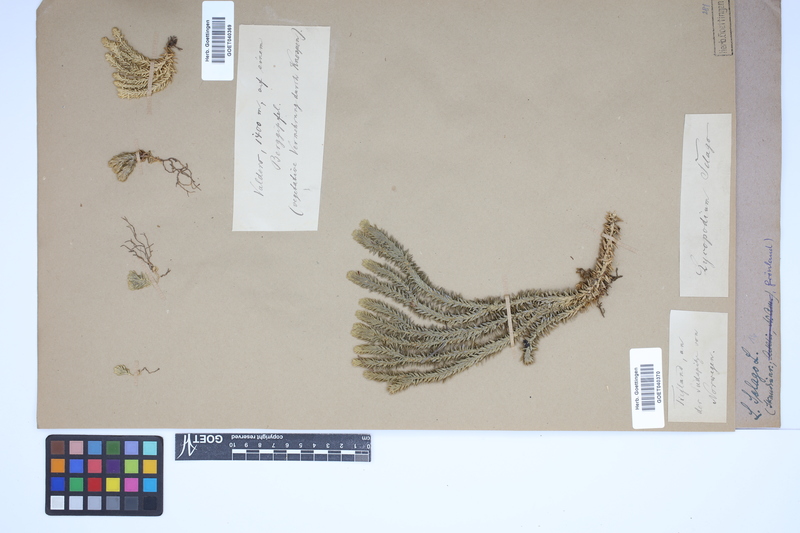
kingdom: Plantae
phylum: Tracheophyta
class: Lycopodiopsida
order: Lycopodiales
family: Lycopodiaceae
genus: Huperzia
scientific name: Huperzia selago
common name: Northern firmoss
